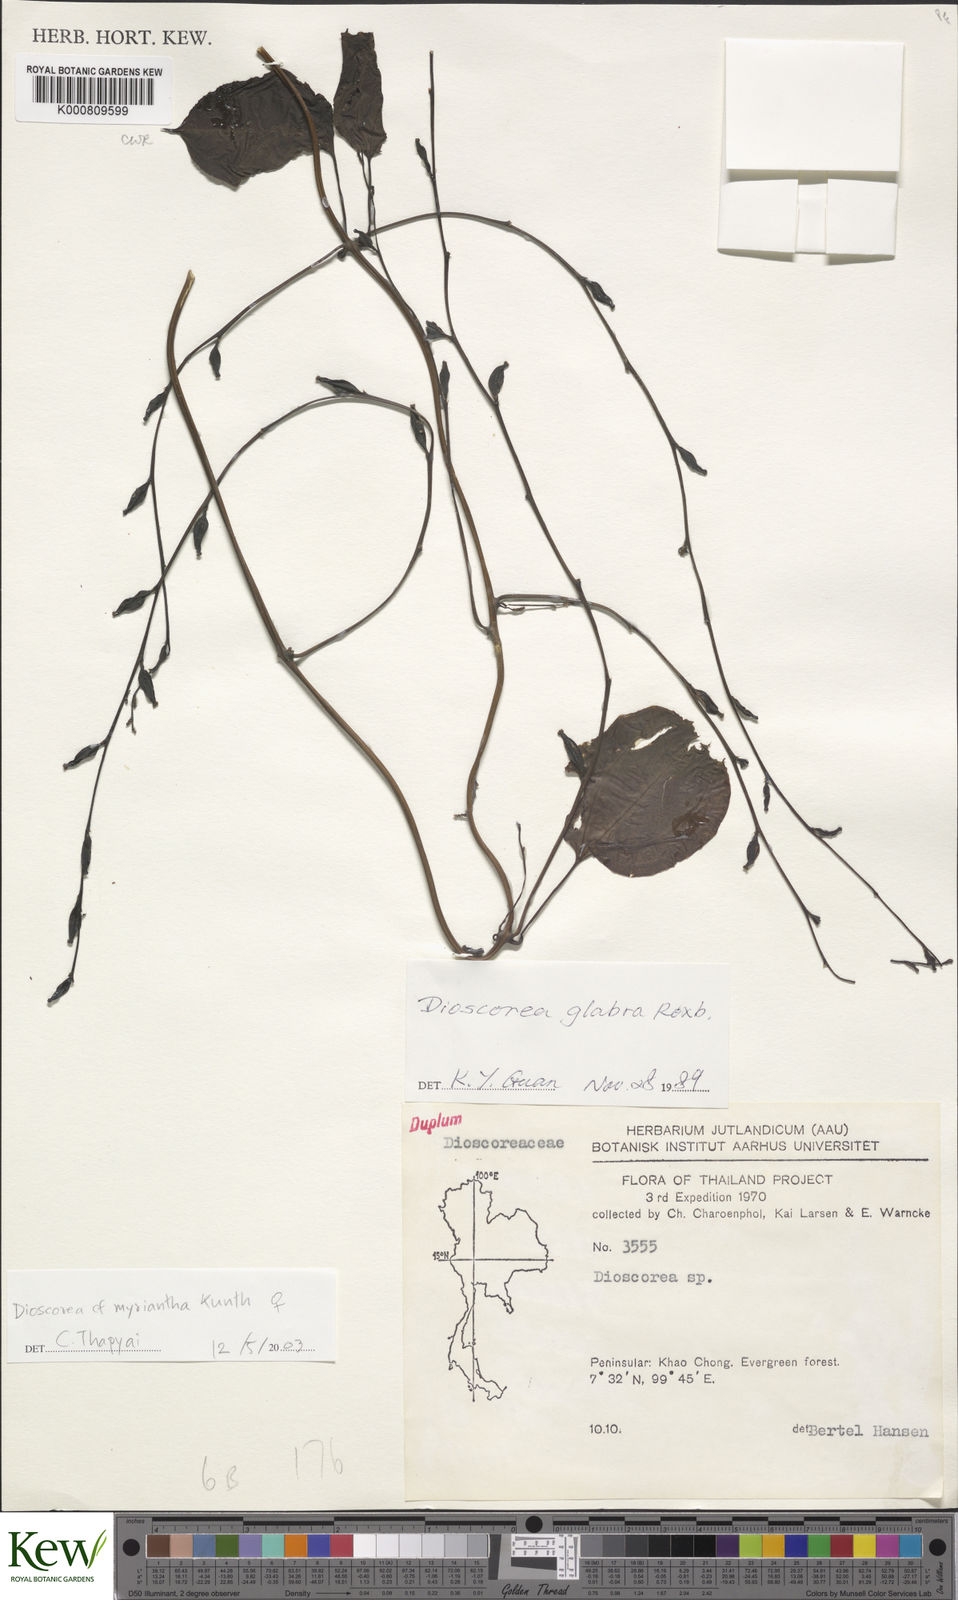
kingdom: Plantae
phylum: Tracheophyta
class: Liliopsida
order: Dioscoreales
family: Dioscoreaceae
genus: Dioscorea
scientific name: Dioscorea glabra
